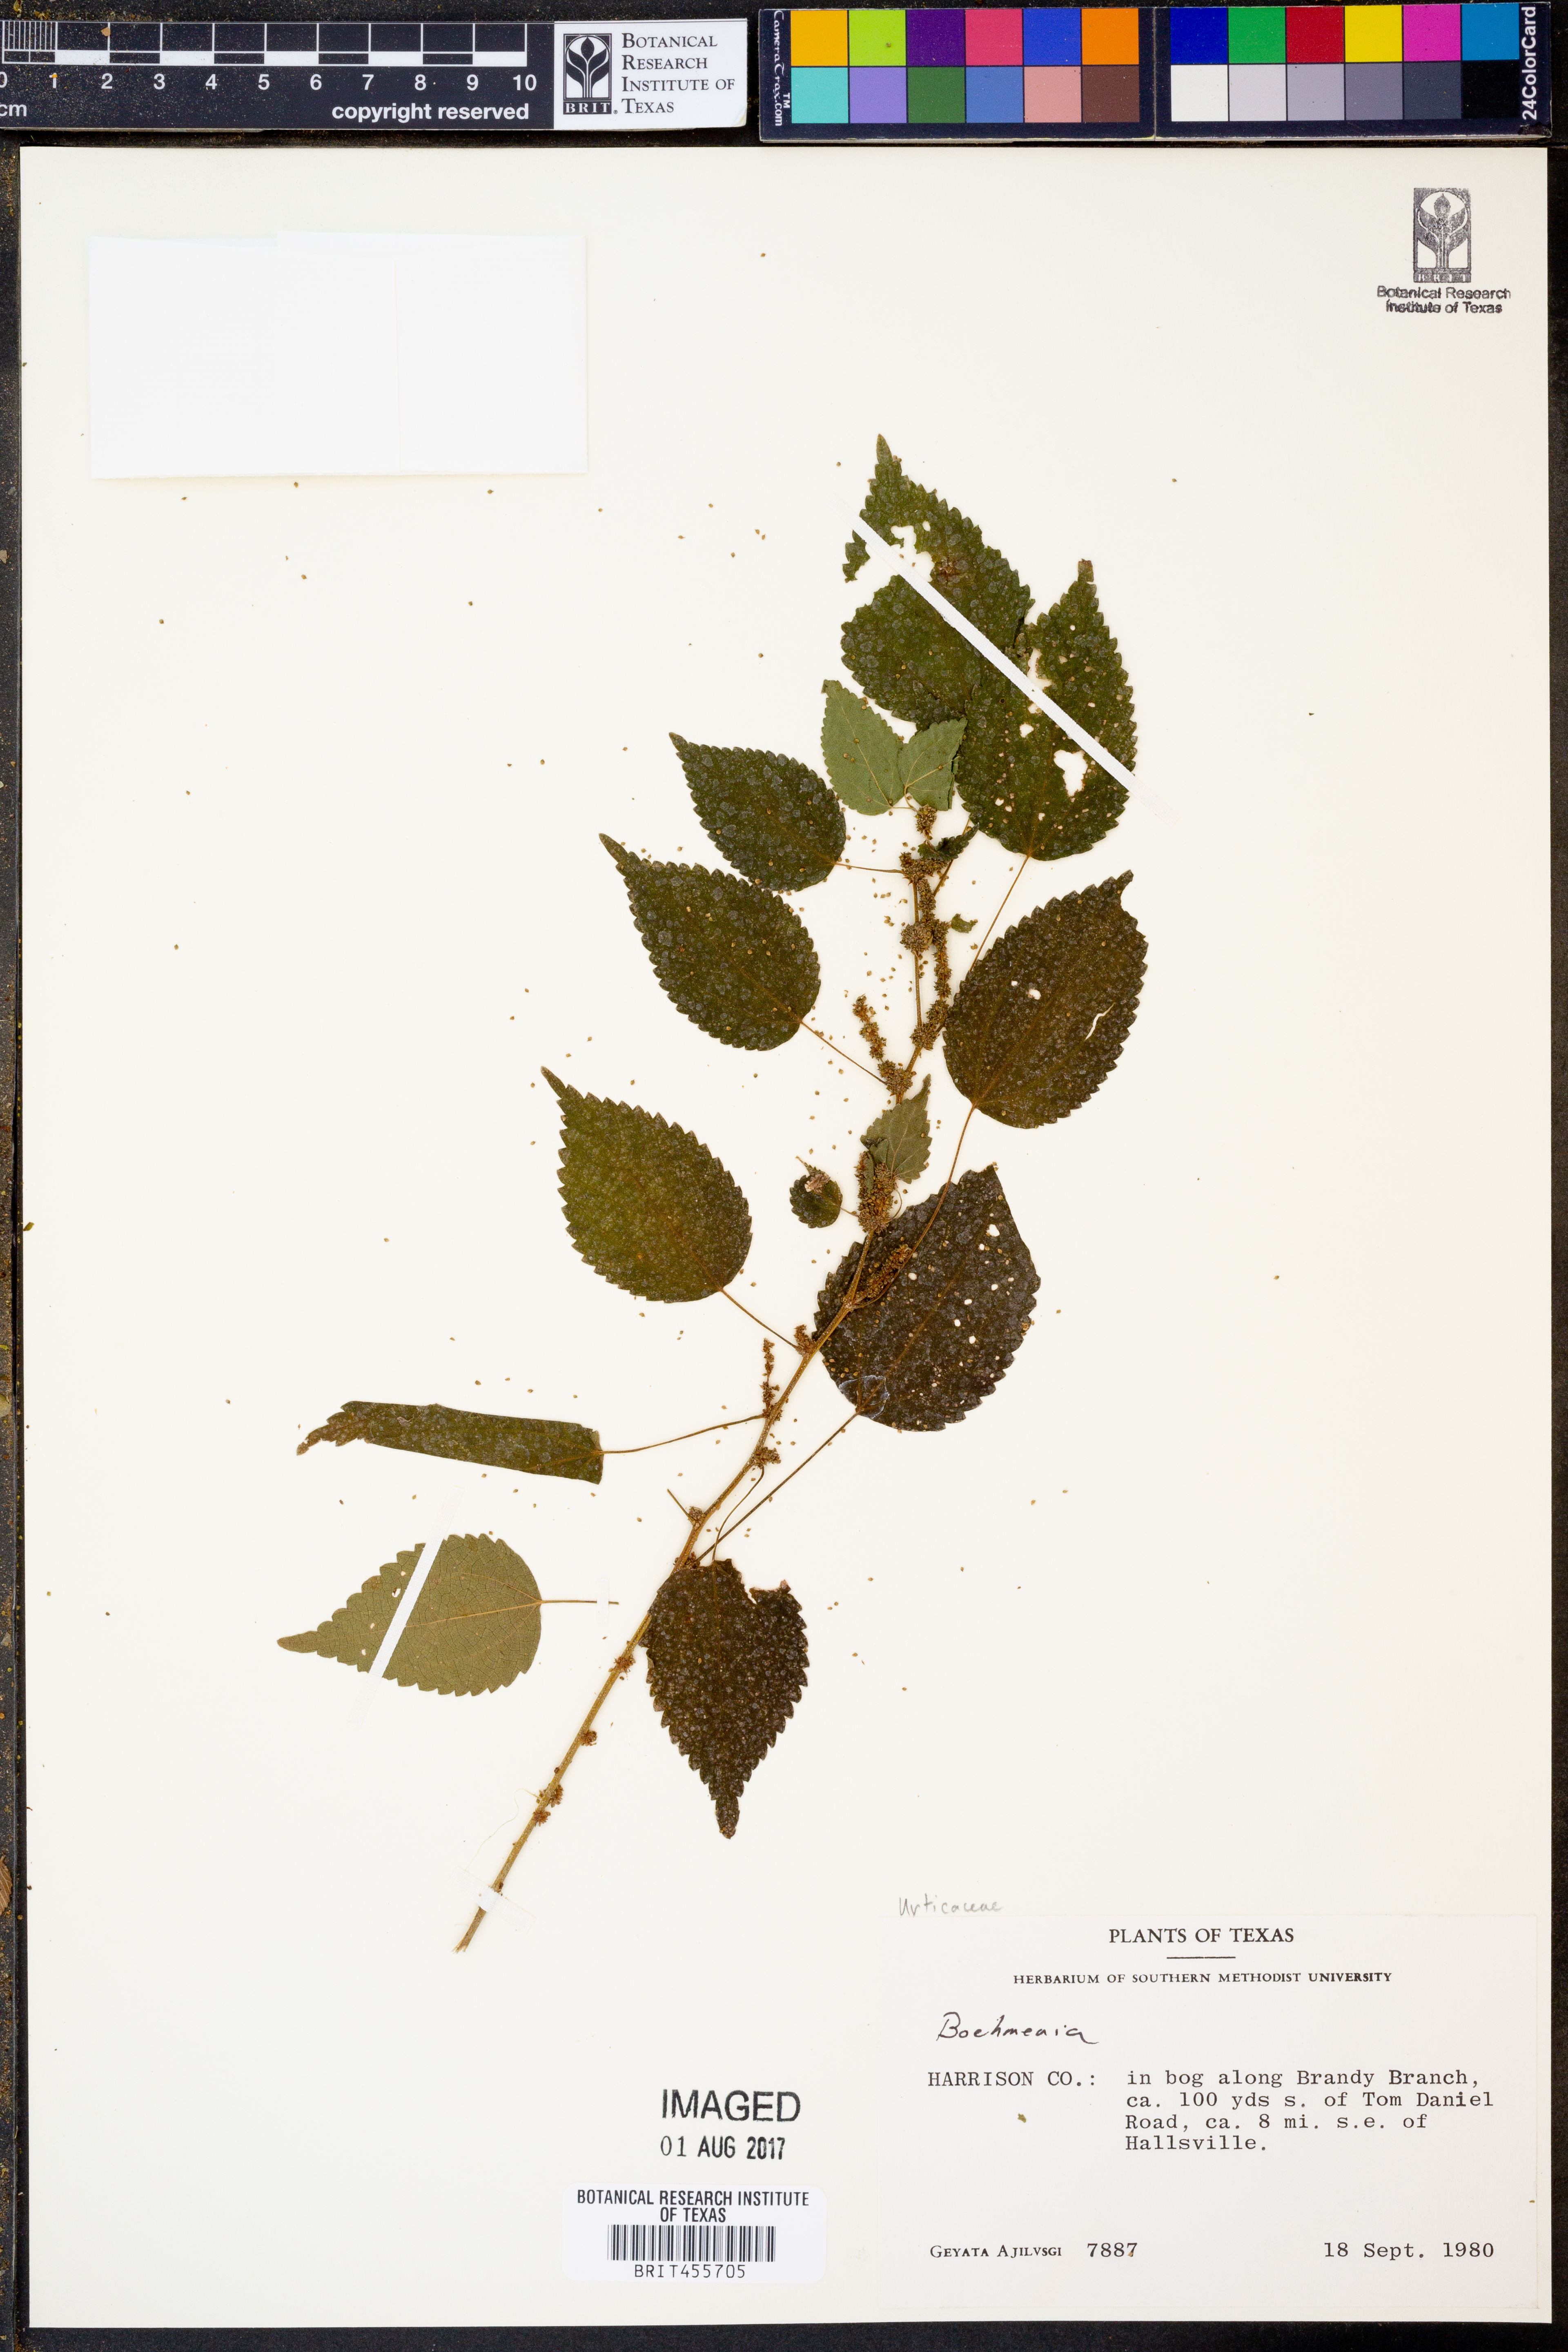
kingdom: Plantae
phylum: Tracheophyta
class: Magnoliopsida
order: Rosales
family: Urticaceae
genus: Boehmeria
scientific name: Boehmeria
